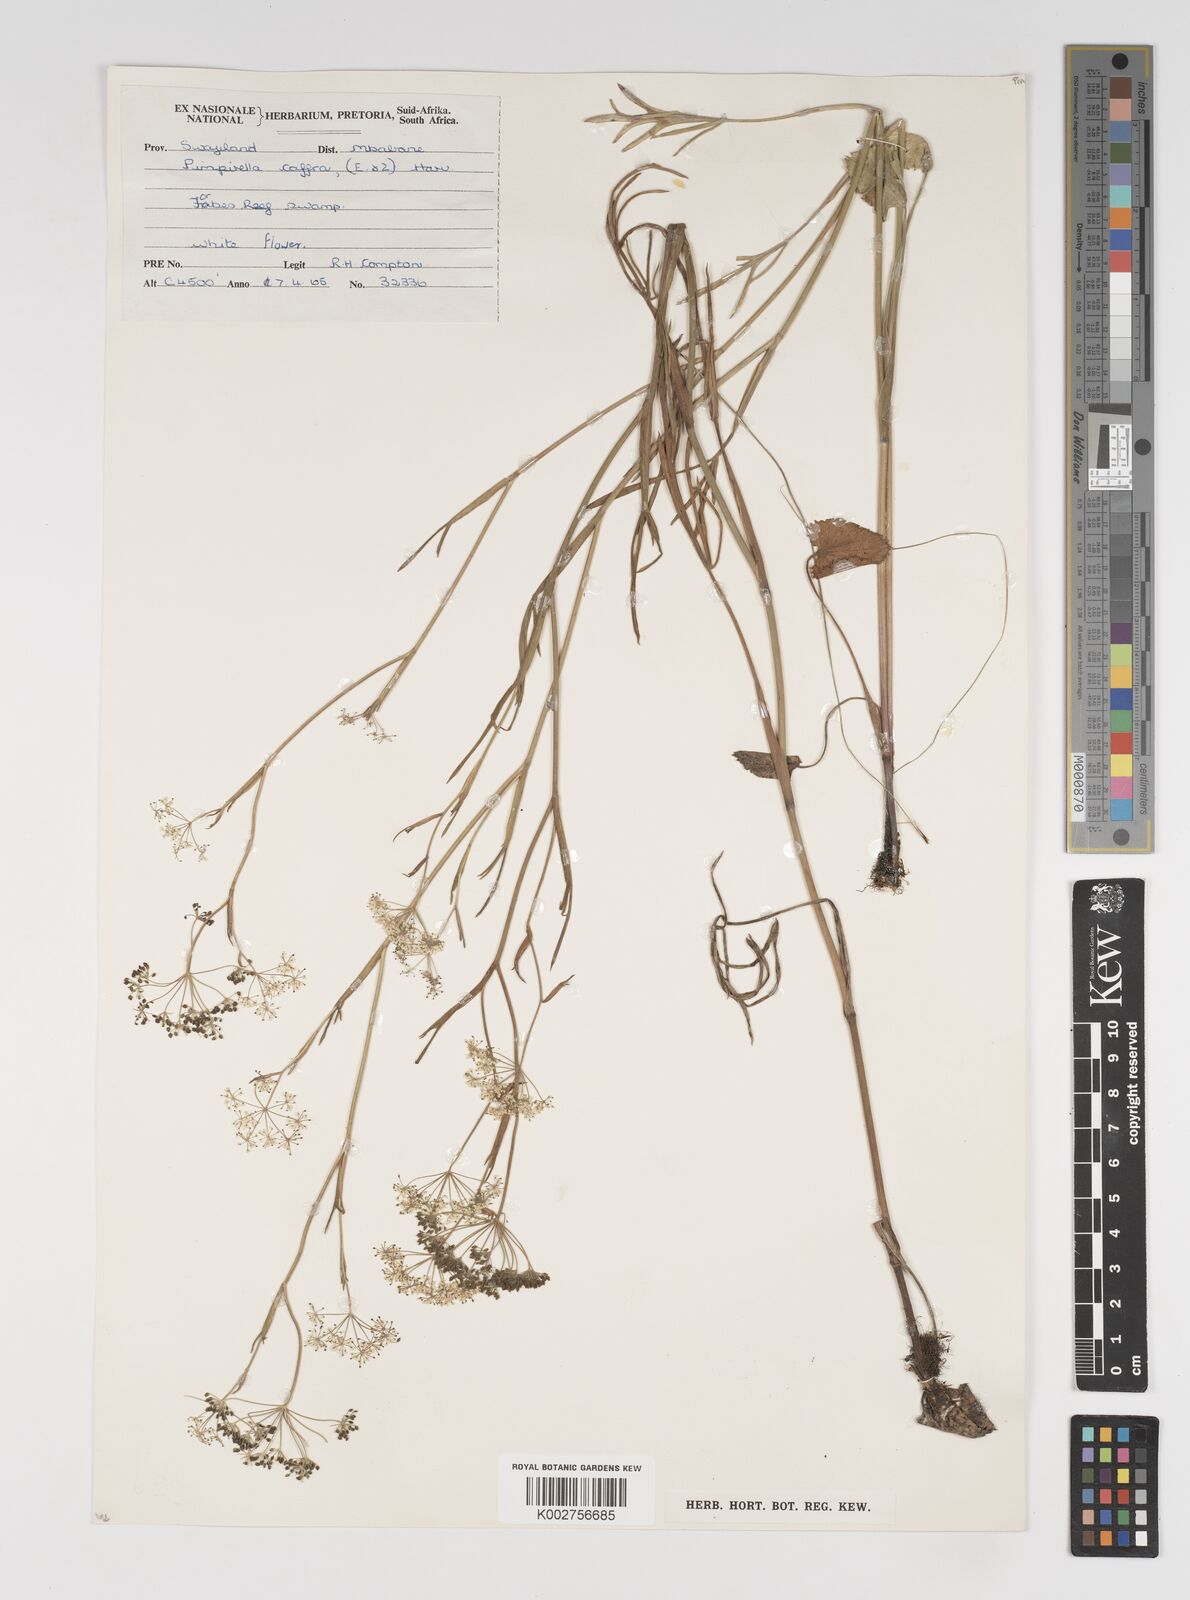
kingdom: Plantae
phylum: Tracheophyta
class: Magnoliopsida
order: Apiales
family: Apiaceae
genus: Pimpinella
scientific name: Pimpinella
